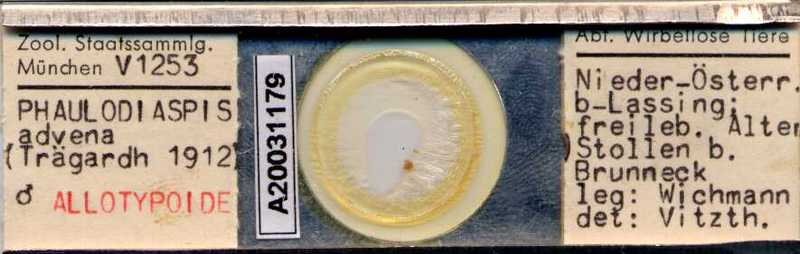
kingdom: Animalia
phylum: Arthropoda
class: Arachnida
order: Mesostigmata
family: Uropodidae
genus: Uroobovella
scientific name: Uroobovella advena
